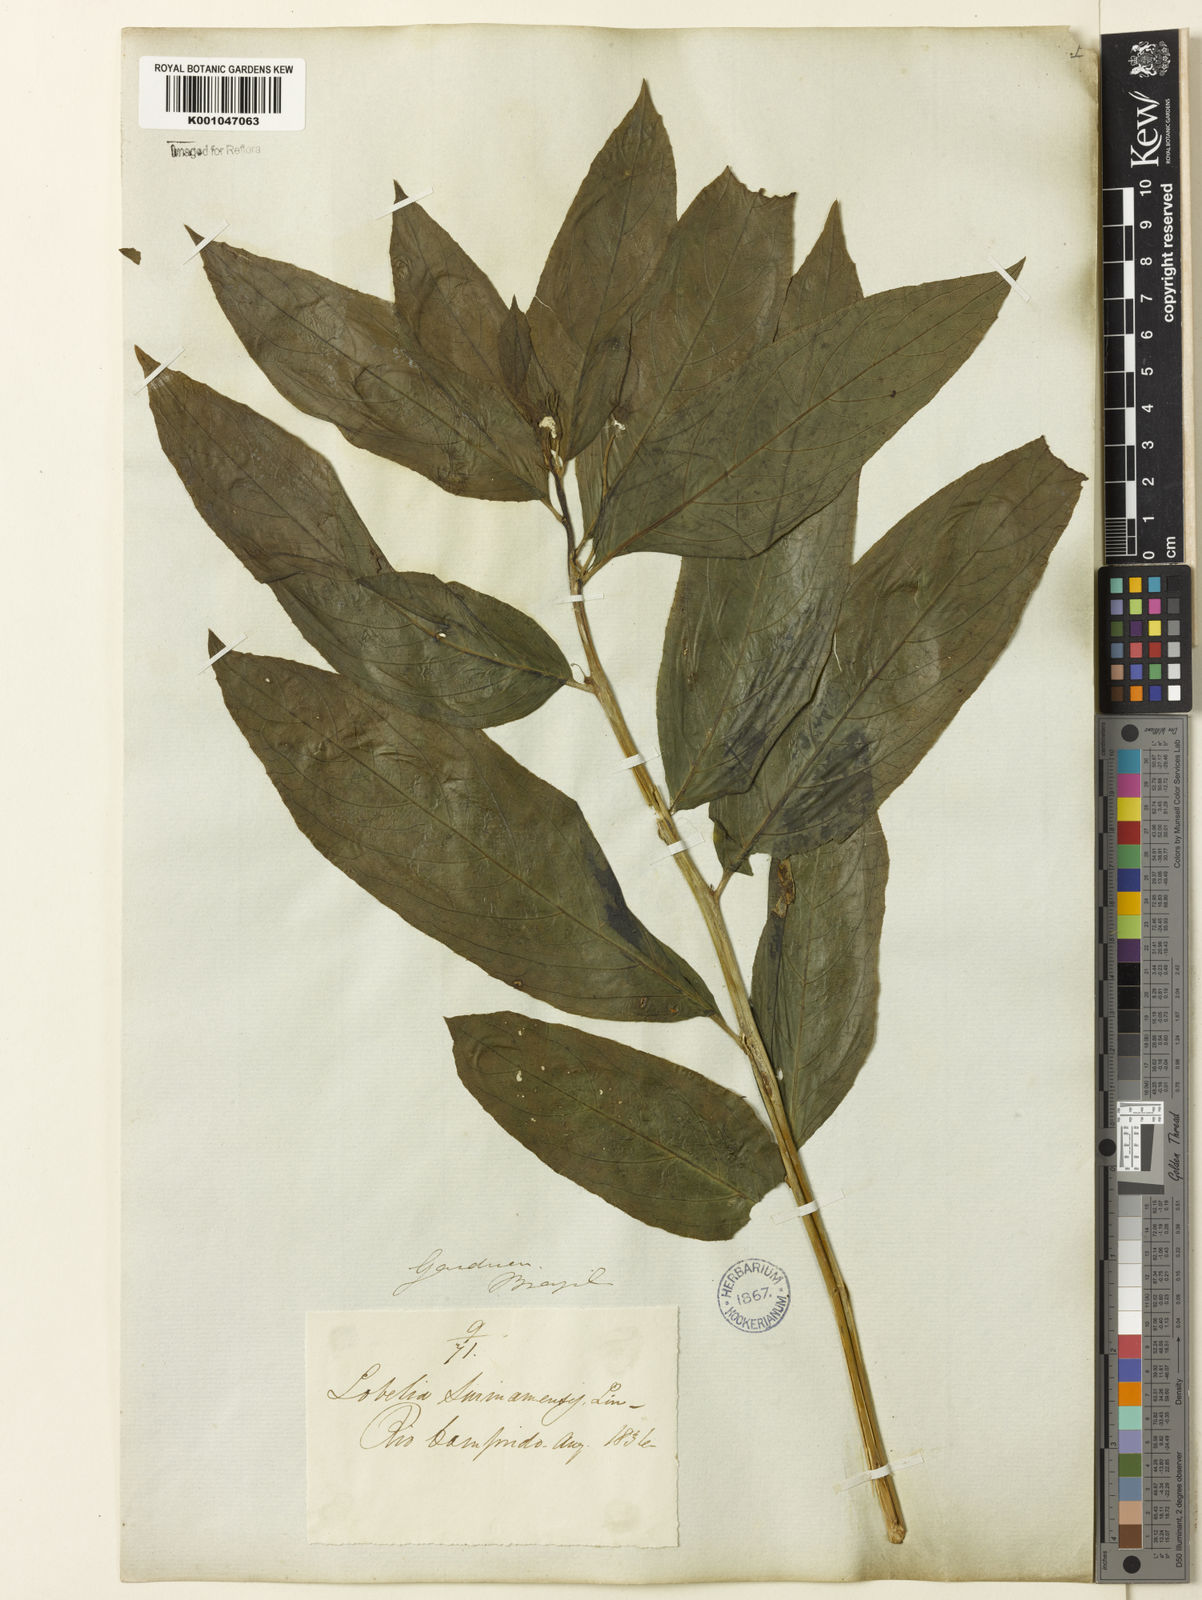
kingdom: Plantae
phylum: Tracheophyta
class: Magnoliopsida
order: Asterales
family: Campanulaceae
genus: Centropogon
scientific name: Centropogon cornutus
